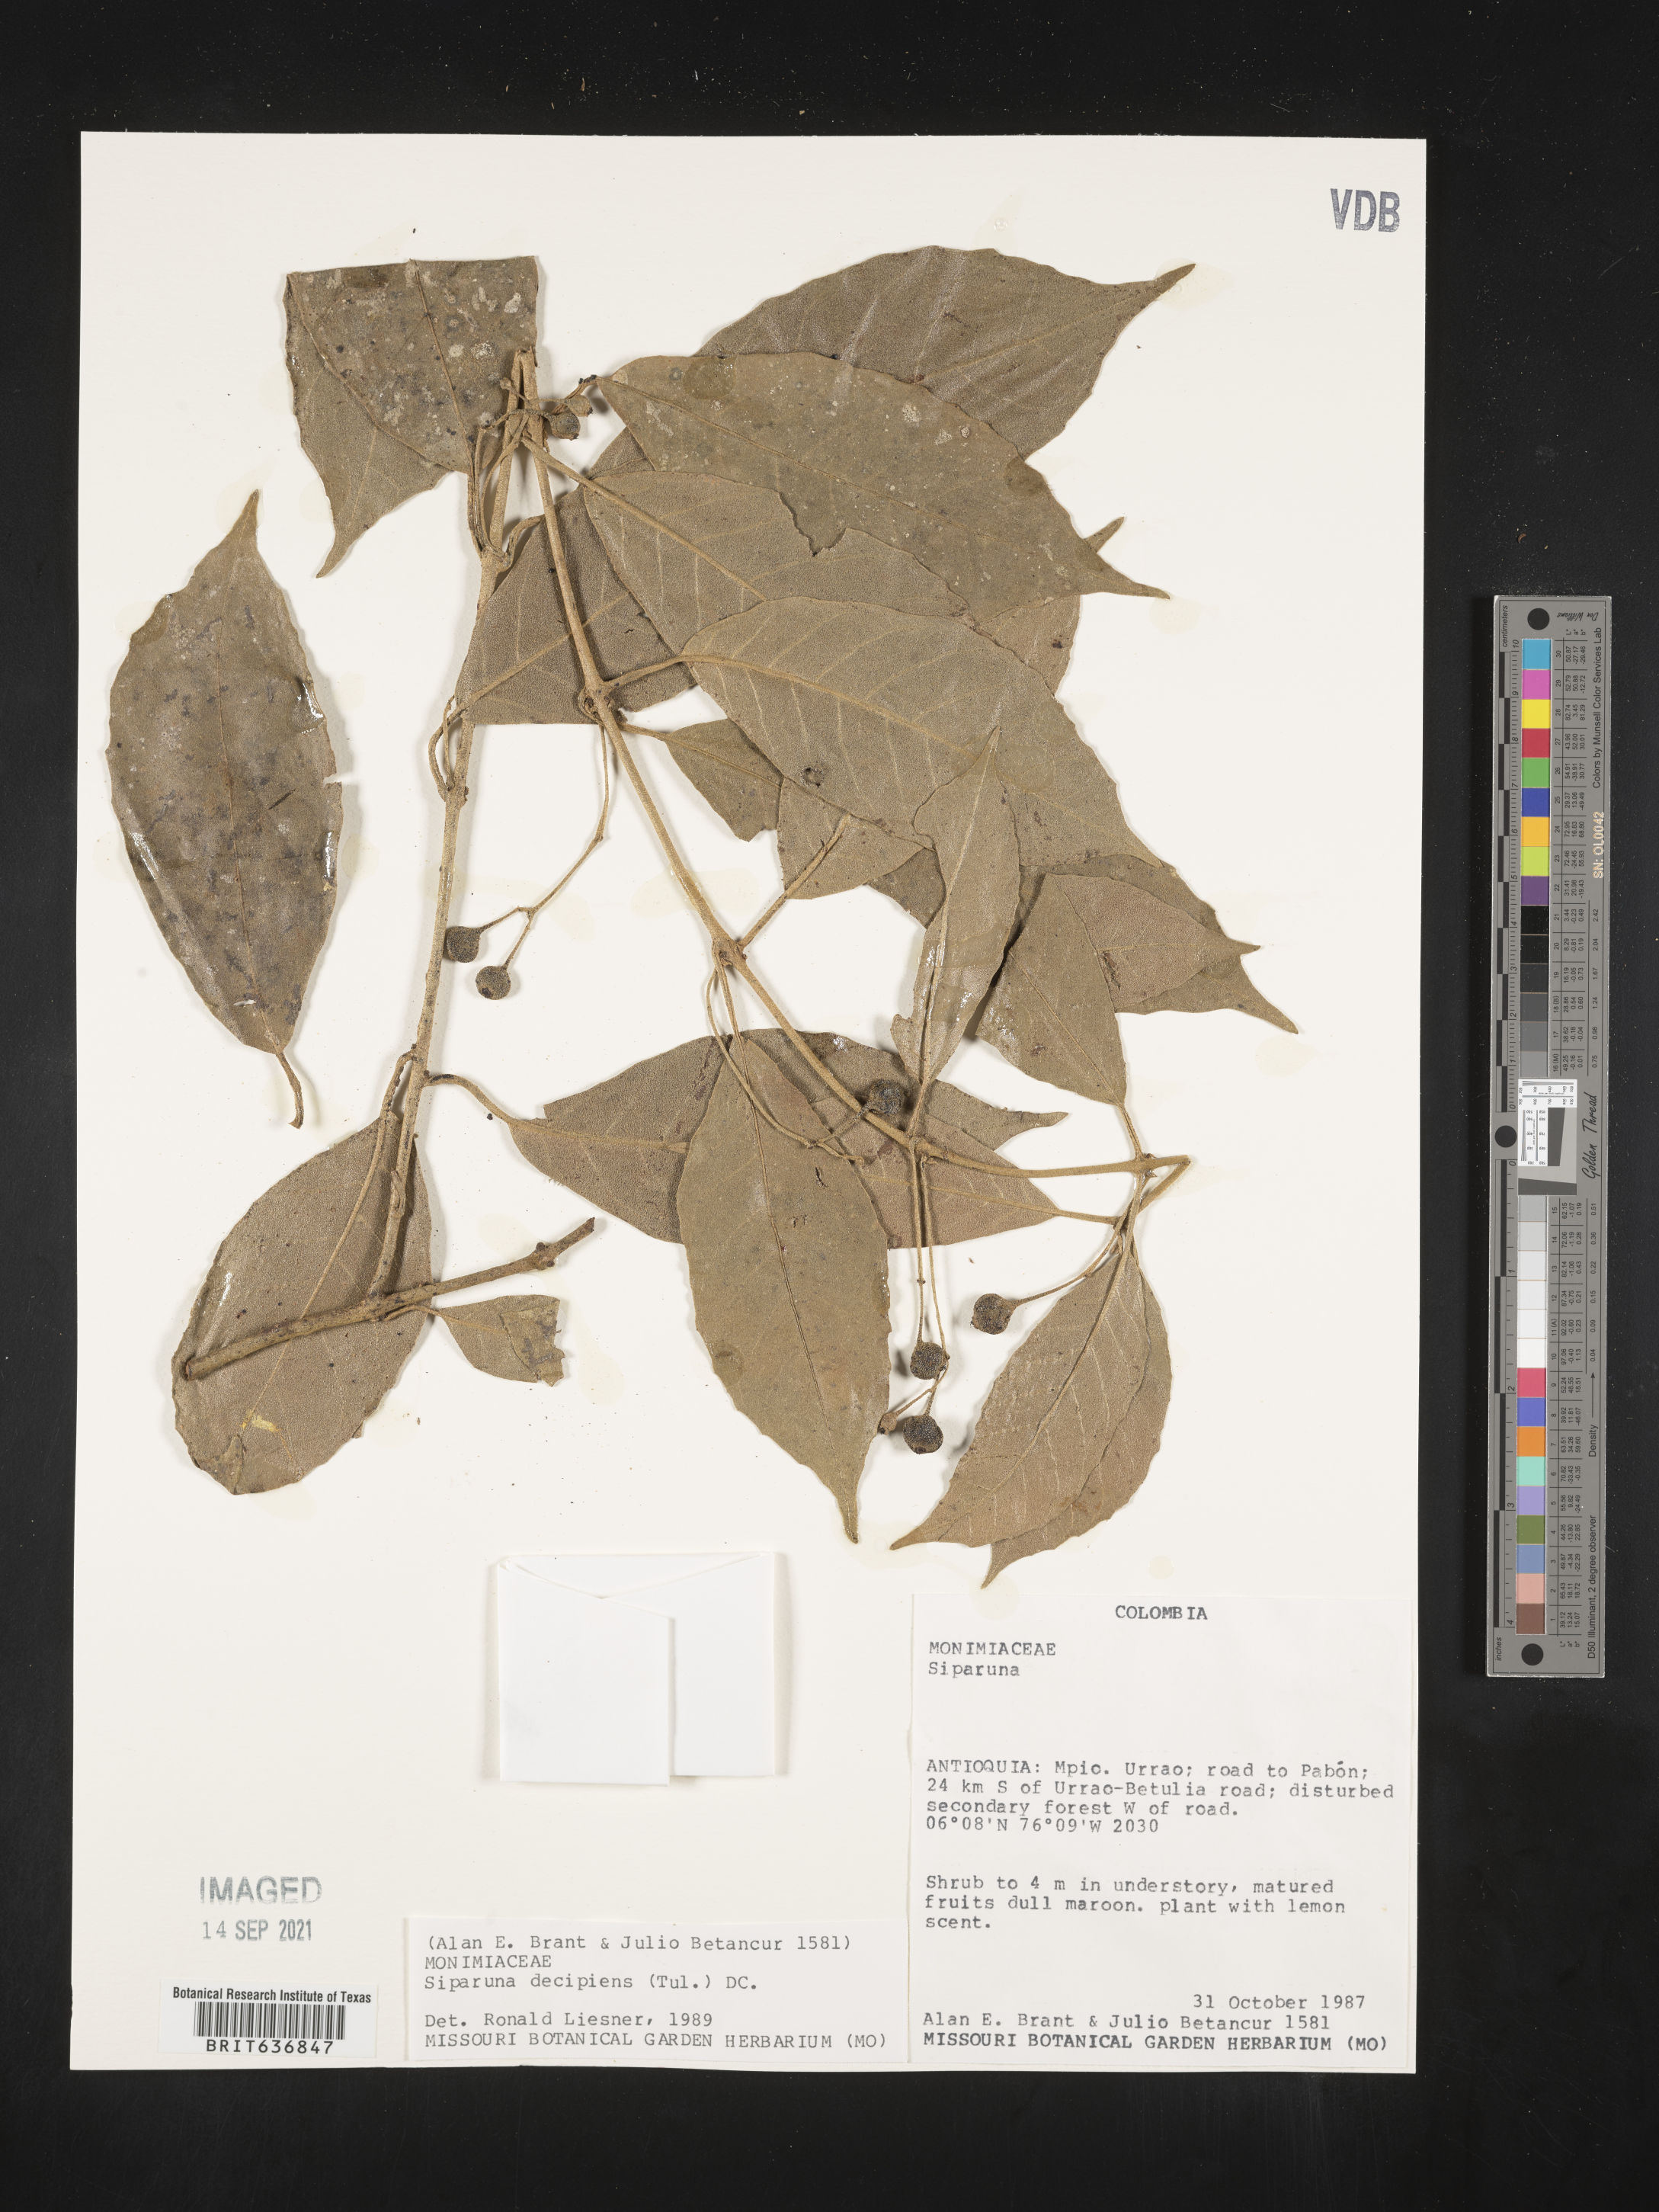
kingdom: Plantae
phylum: Tracheophyta
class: Magnoliopsida
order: Laurales
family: Siparunaceae
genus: Siparuna
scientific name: Siparuna
